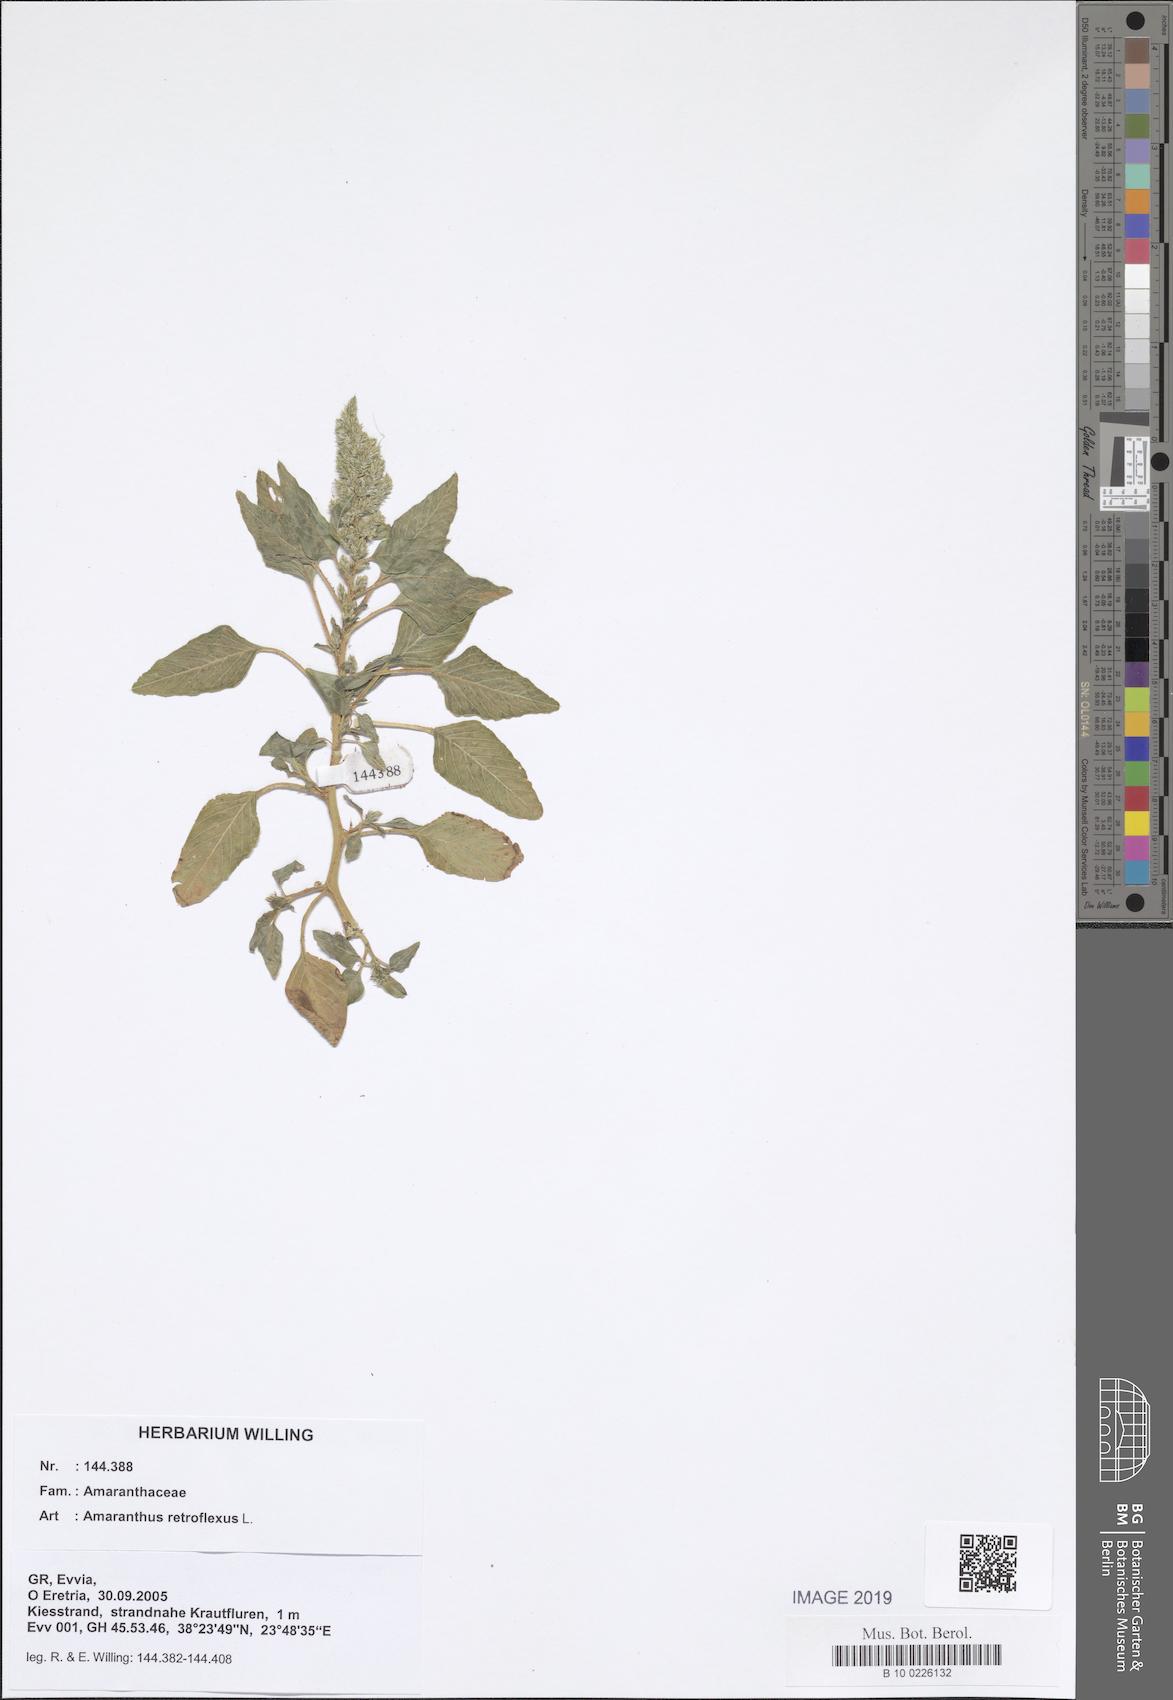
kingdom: Plantae
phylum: Tracheophyta
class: Magnoliopsida
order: Caryophyllales
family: Amaranthaceae
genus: Amaranthus
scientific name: Amaranthus retroflexus
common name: Redroot amaranth
